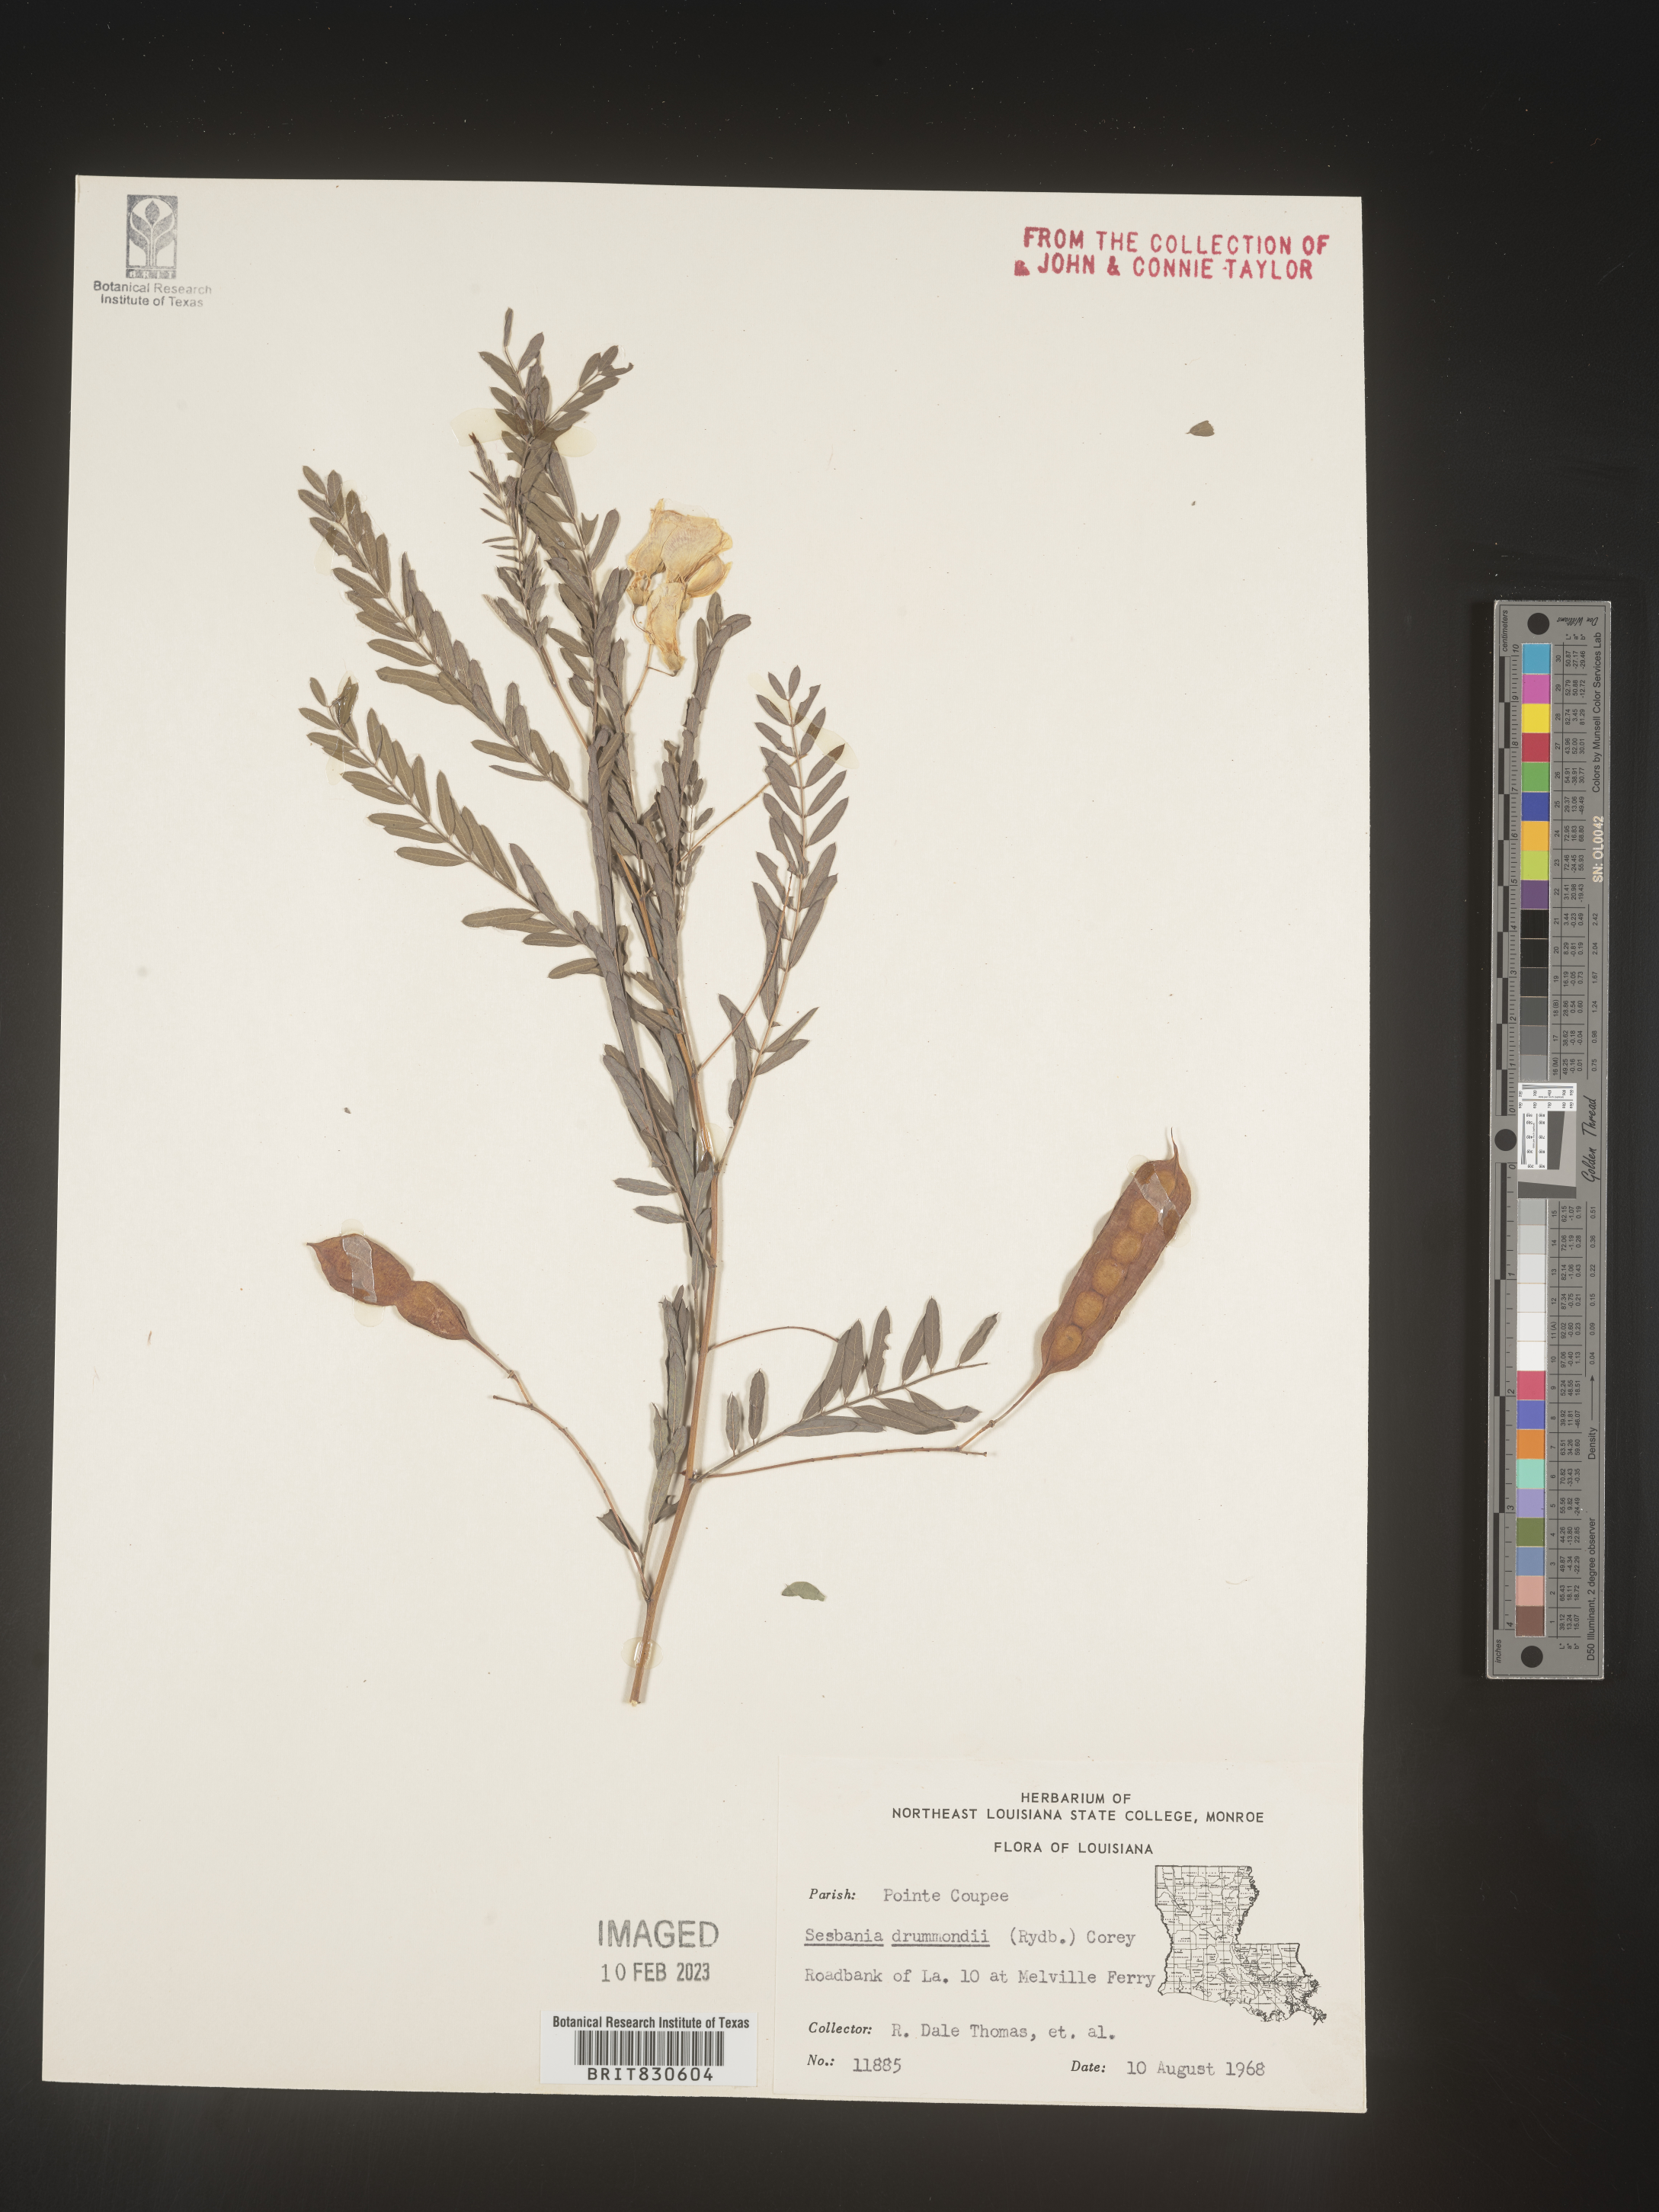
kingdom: Plantae
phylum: Tracheophyta
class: Magnoliopsida
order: Fabales
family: Fabaceae
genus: Sesbania
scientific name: Sesbania drummondii
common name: Poison-bean
